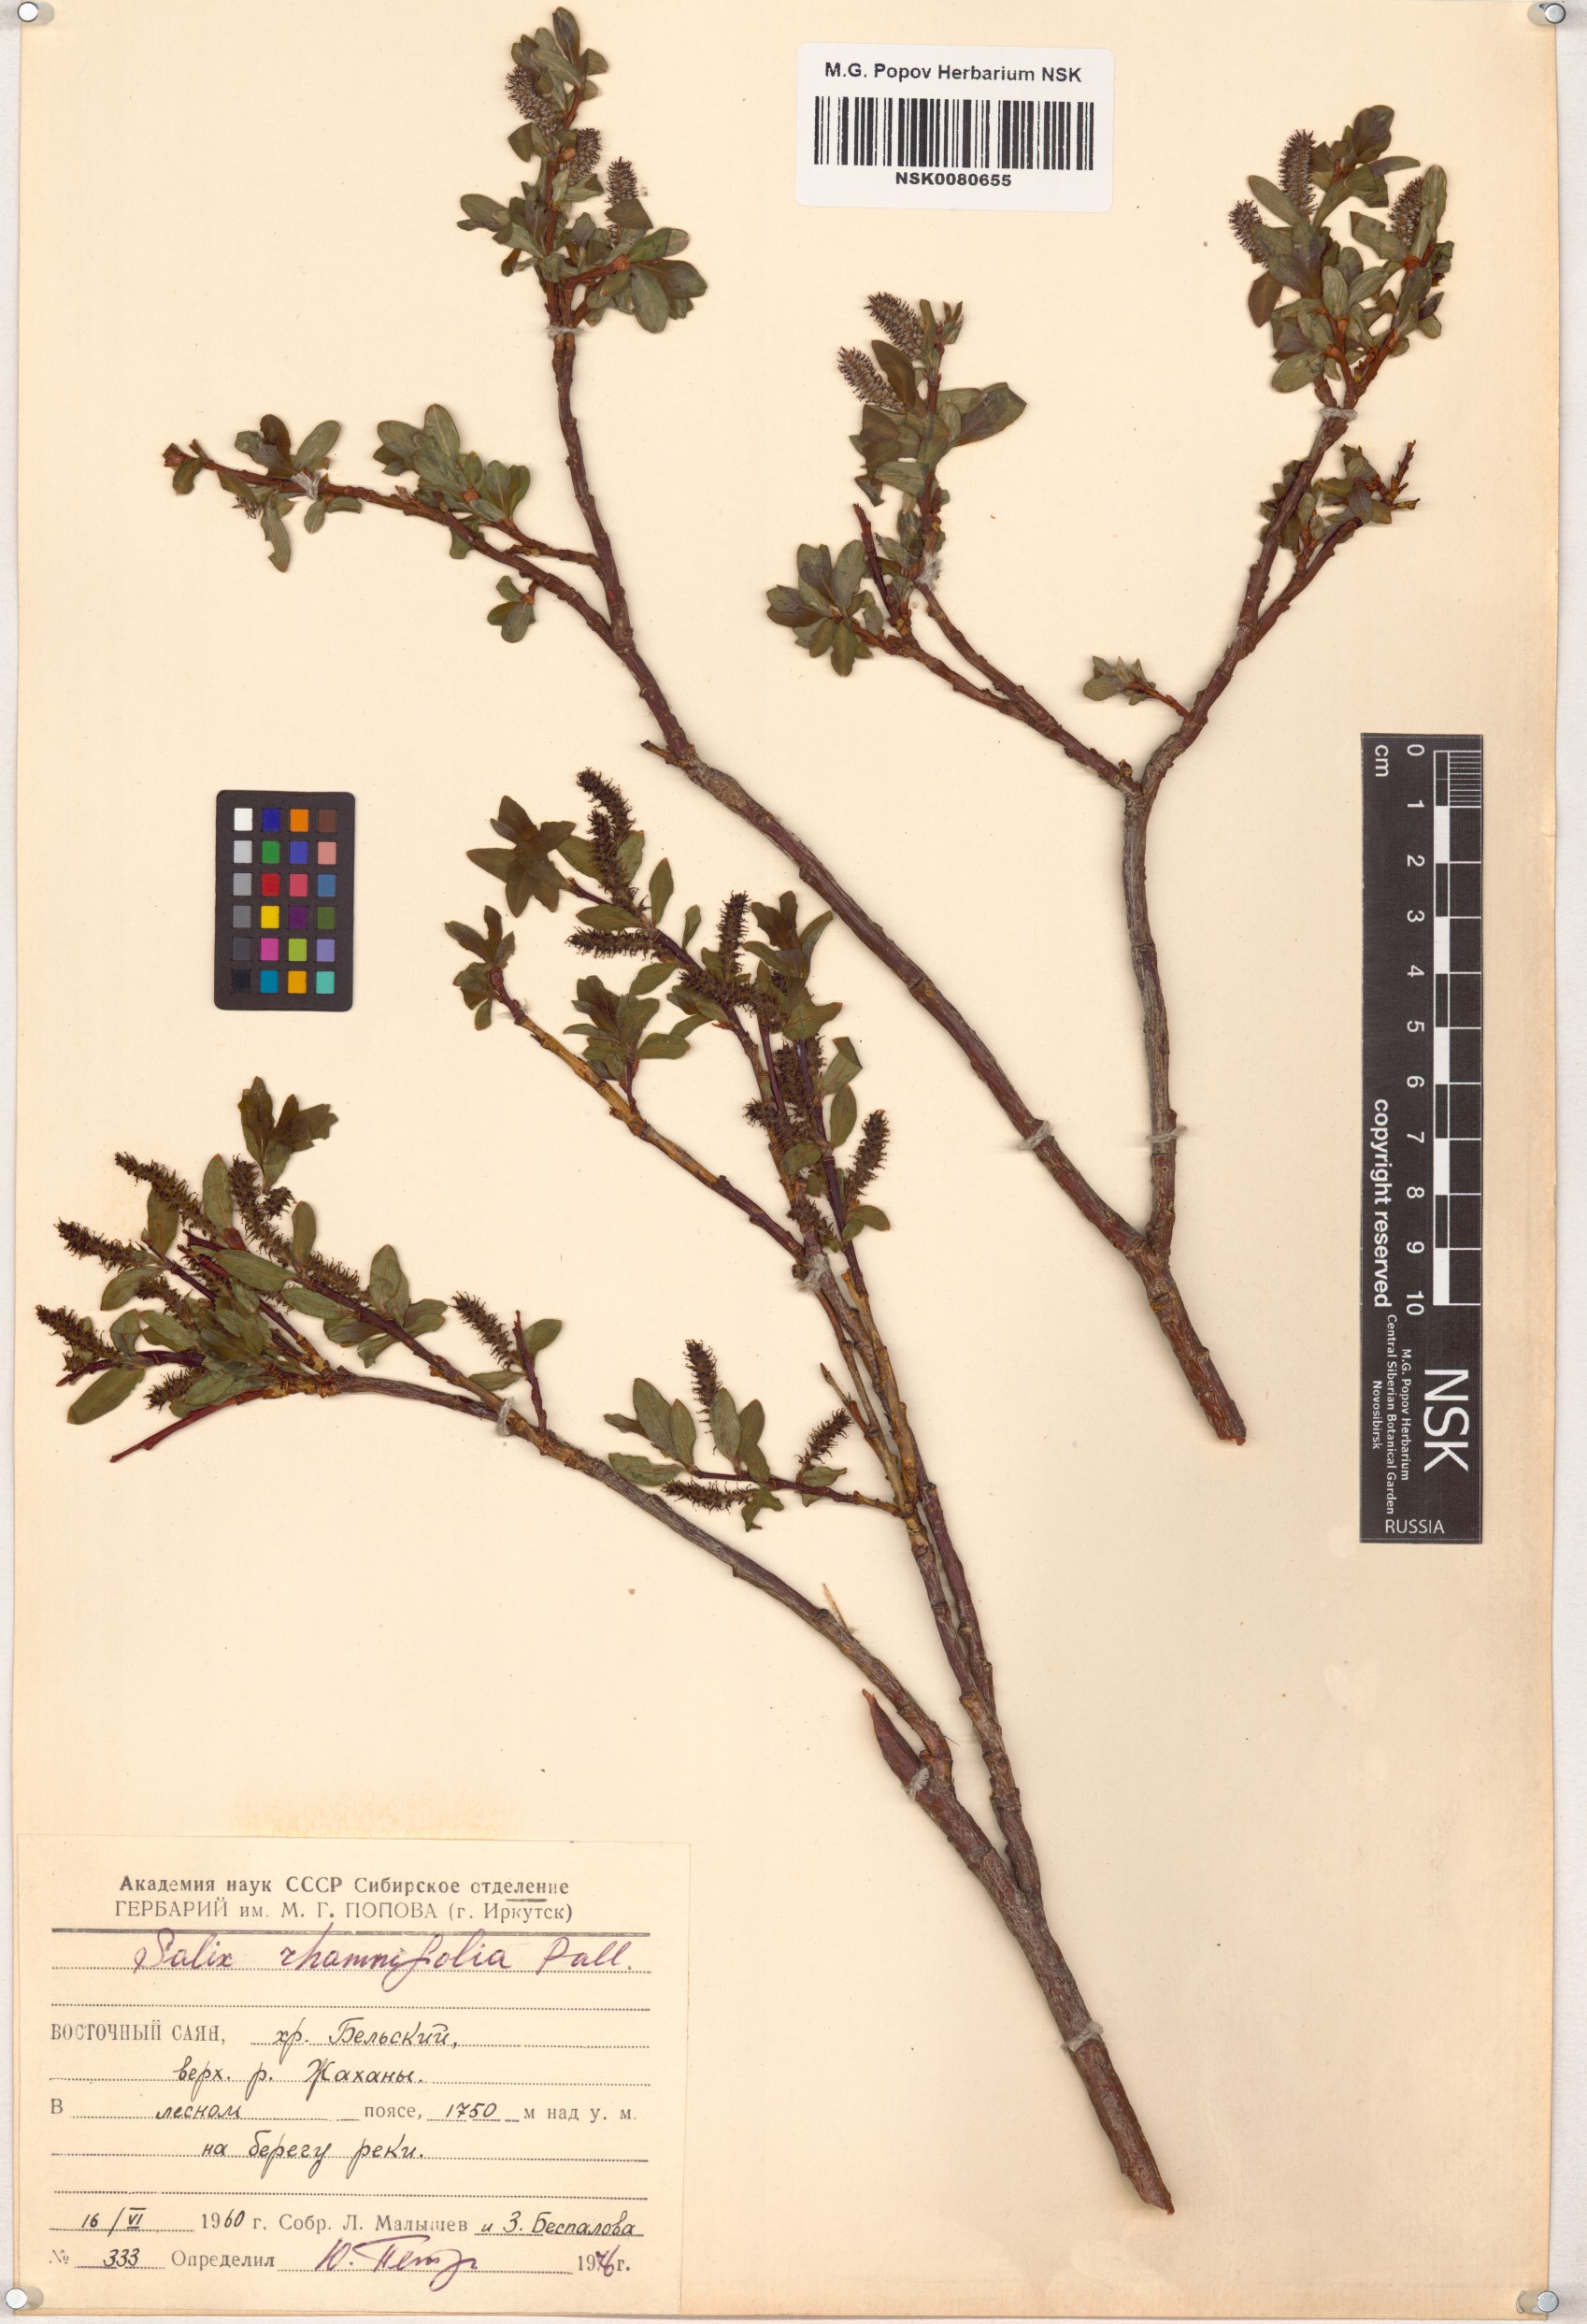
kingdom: Plantae
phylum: Tracheophyta
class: Magnoliopsida
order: Malpighiales
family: Salicaceae
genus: Salix
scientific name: Salix rhamnifolia
